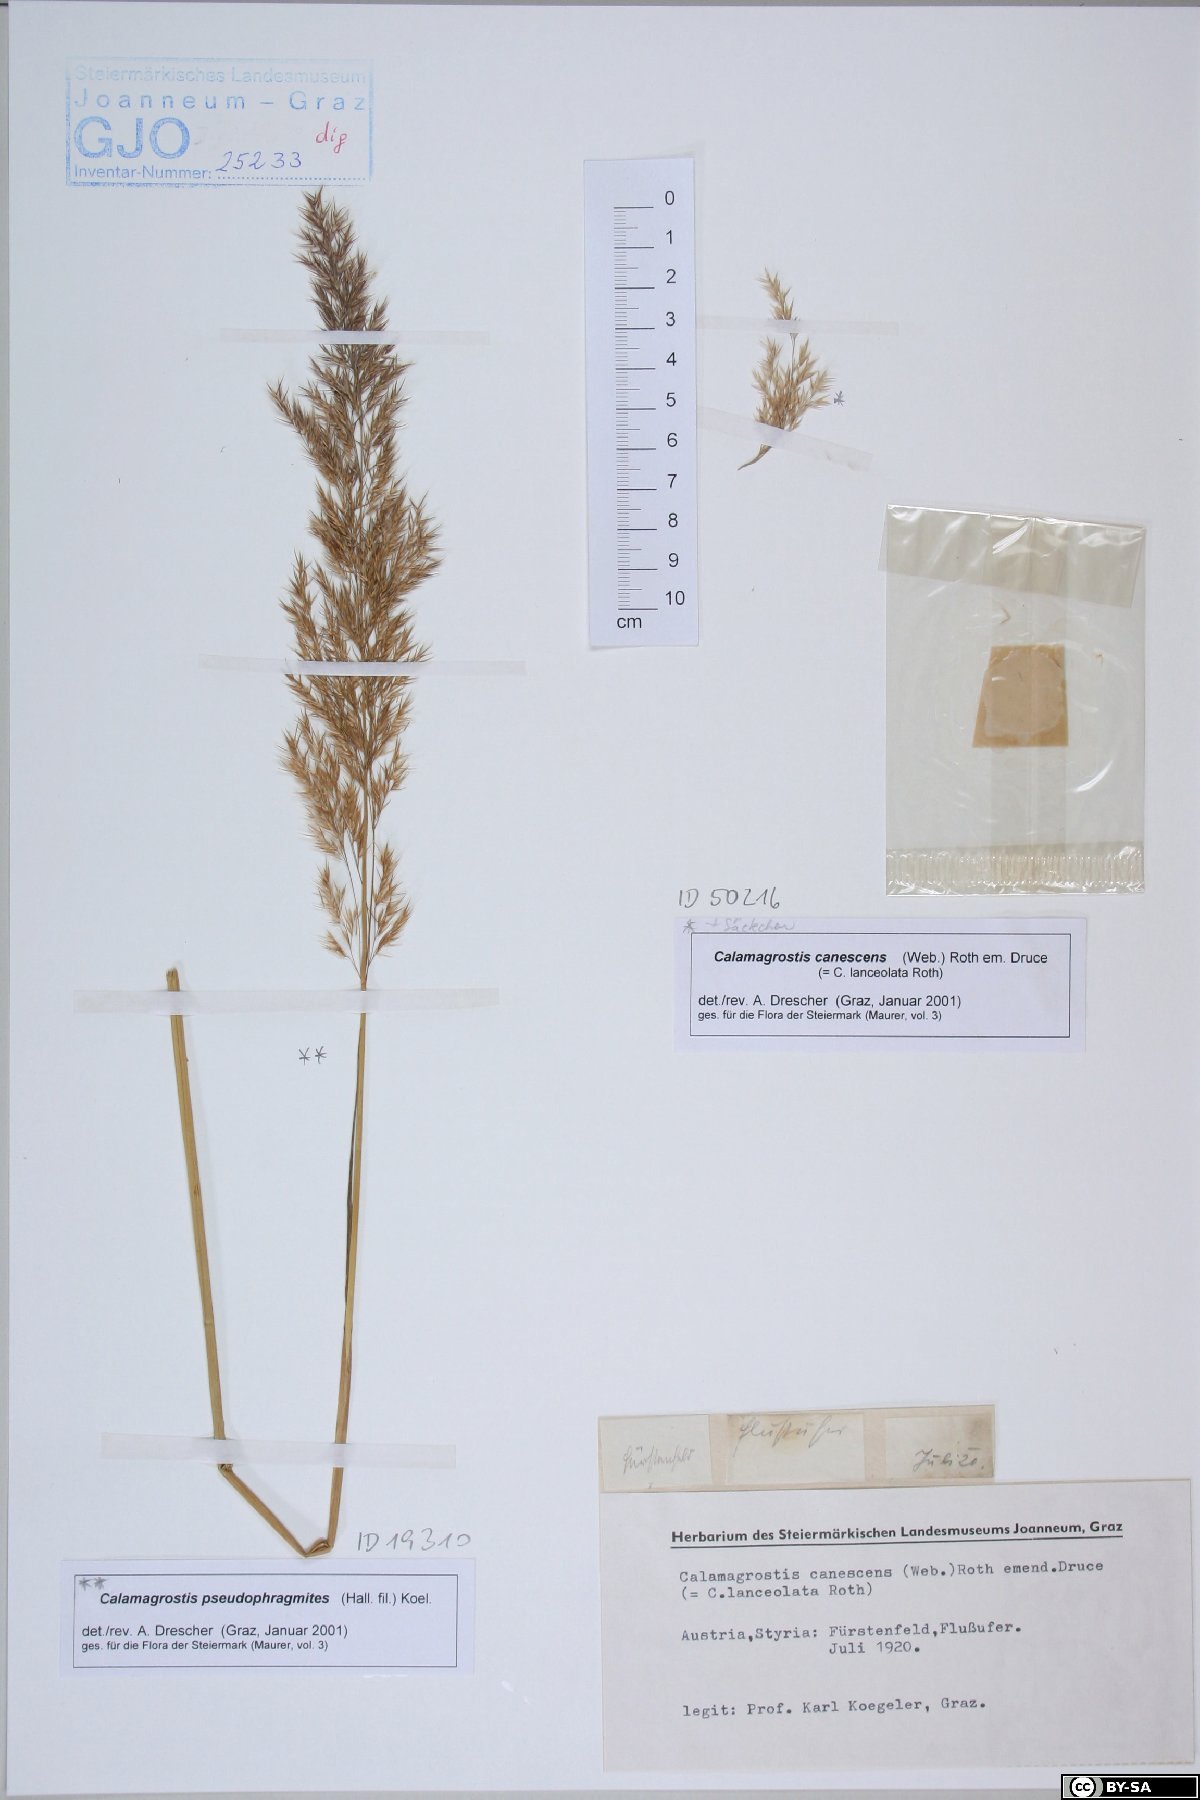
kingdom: Plantae
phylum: Tracheophyta
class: Liliopsida
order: Poales
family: Poaceae
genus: Calamagrostis
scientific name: Calamagrostis canescens
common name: Purple small-reed
